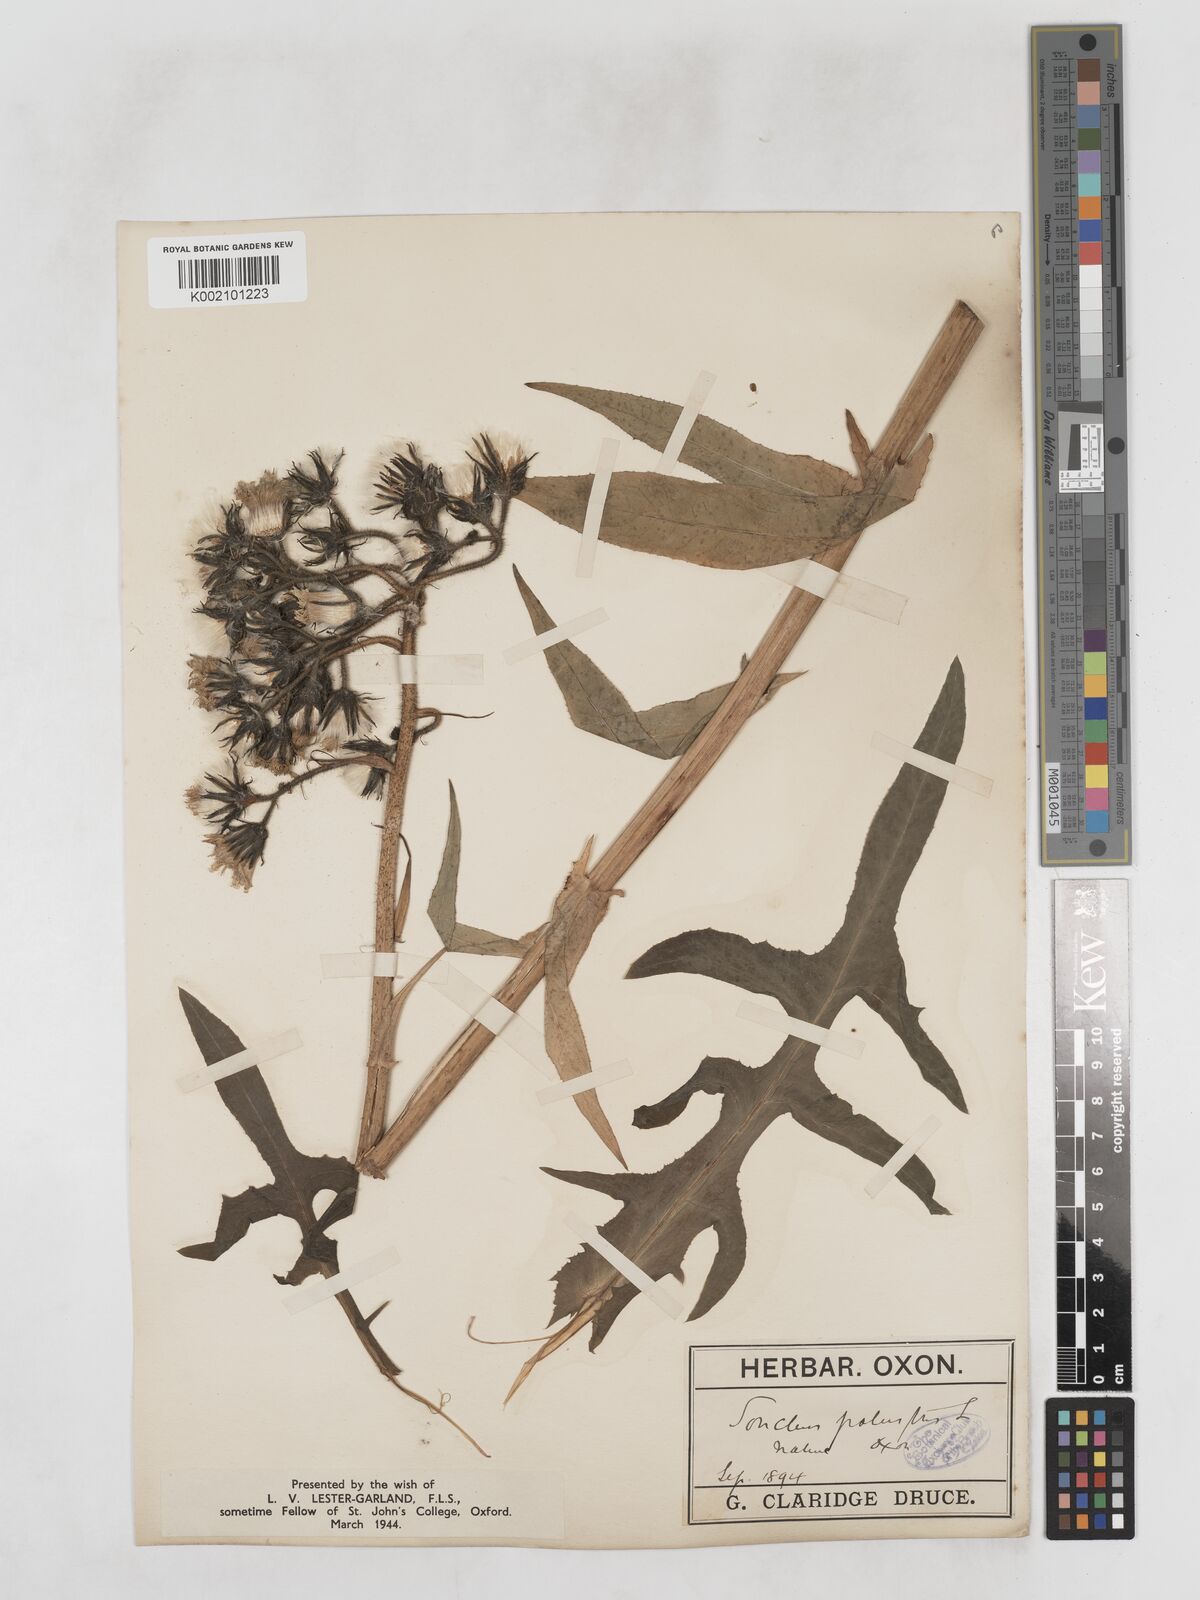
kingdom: Plantae
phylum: Tracheophyta
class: Magnoliopsida
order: Asterales
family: Asteraceae
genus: Sonchus
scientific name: Sonchus palustris
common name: Marsh sow-thistle
